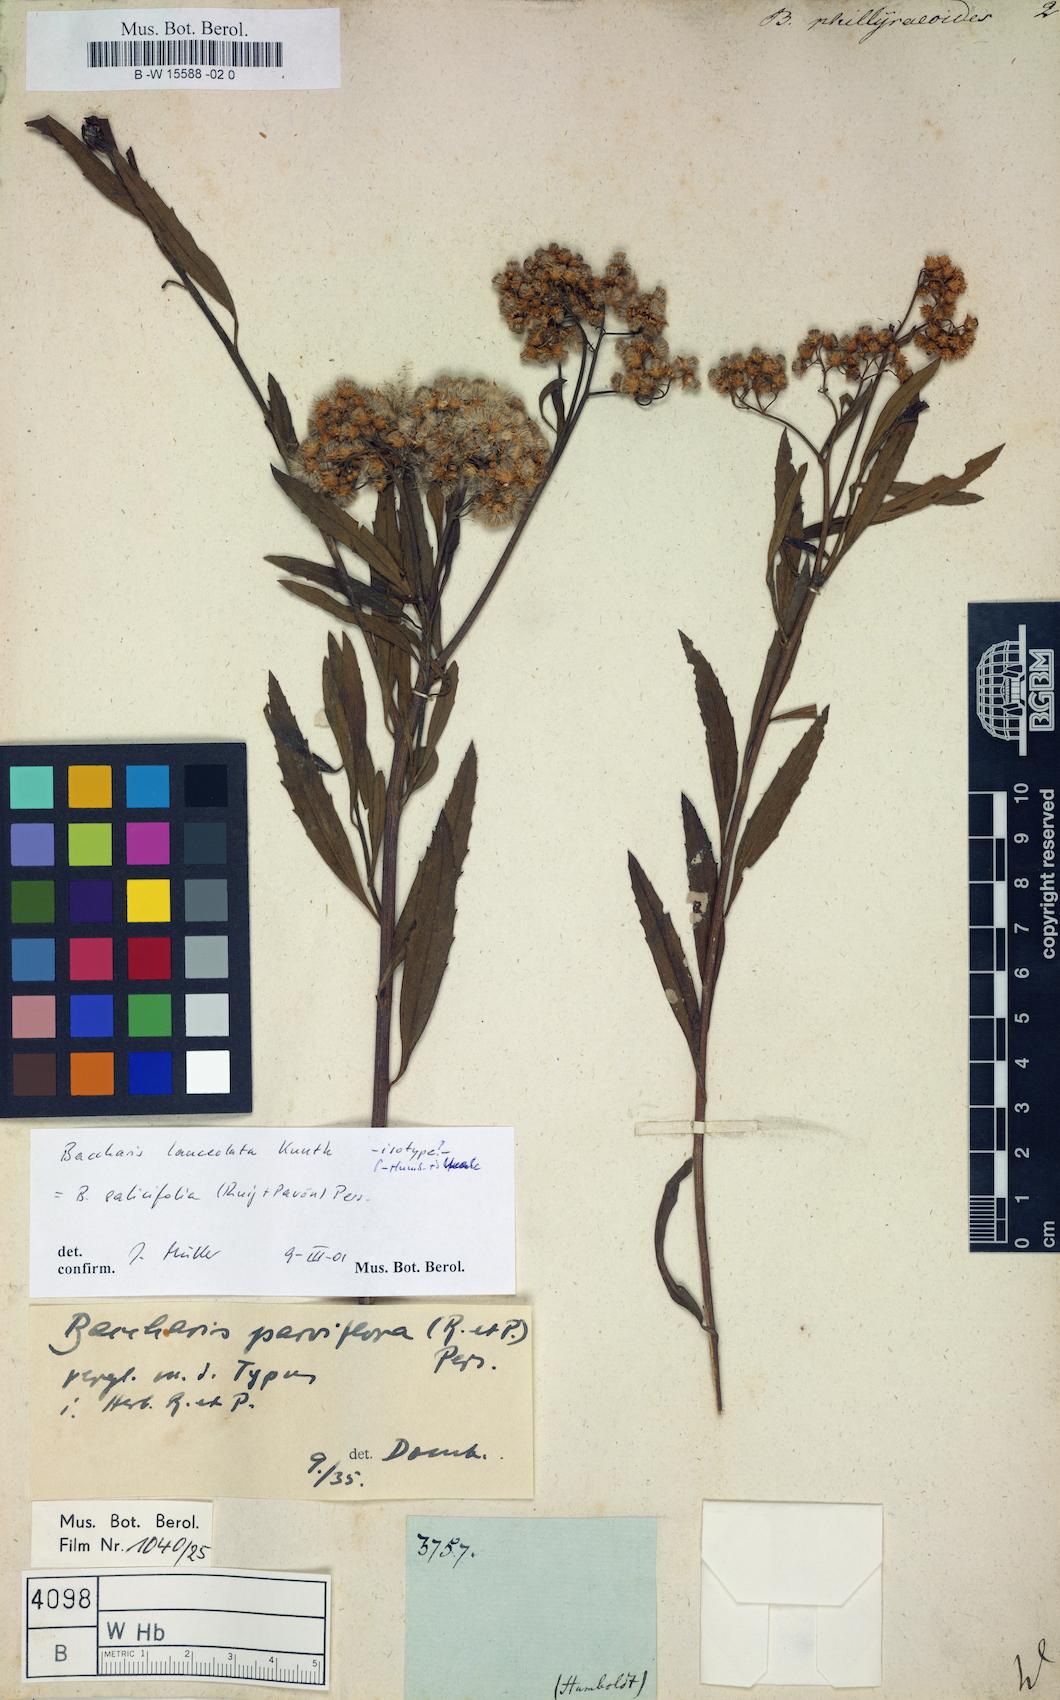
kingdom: Plantae
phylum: Tracheophyta
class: Magnoliopsida
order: Asterales
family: Asteraceae
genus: Baccharis
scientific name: Baccharis
